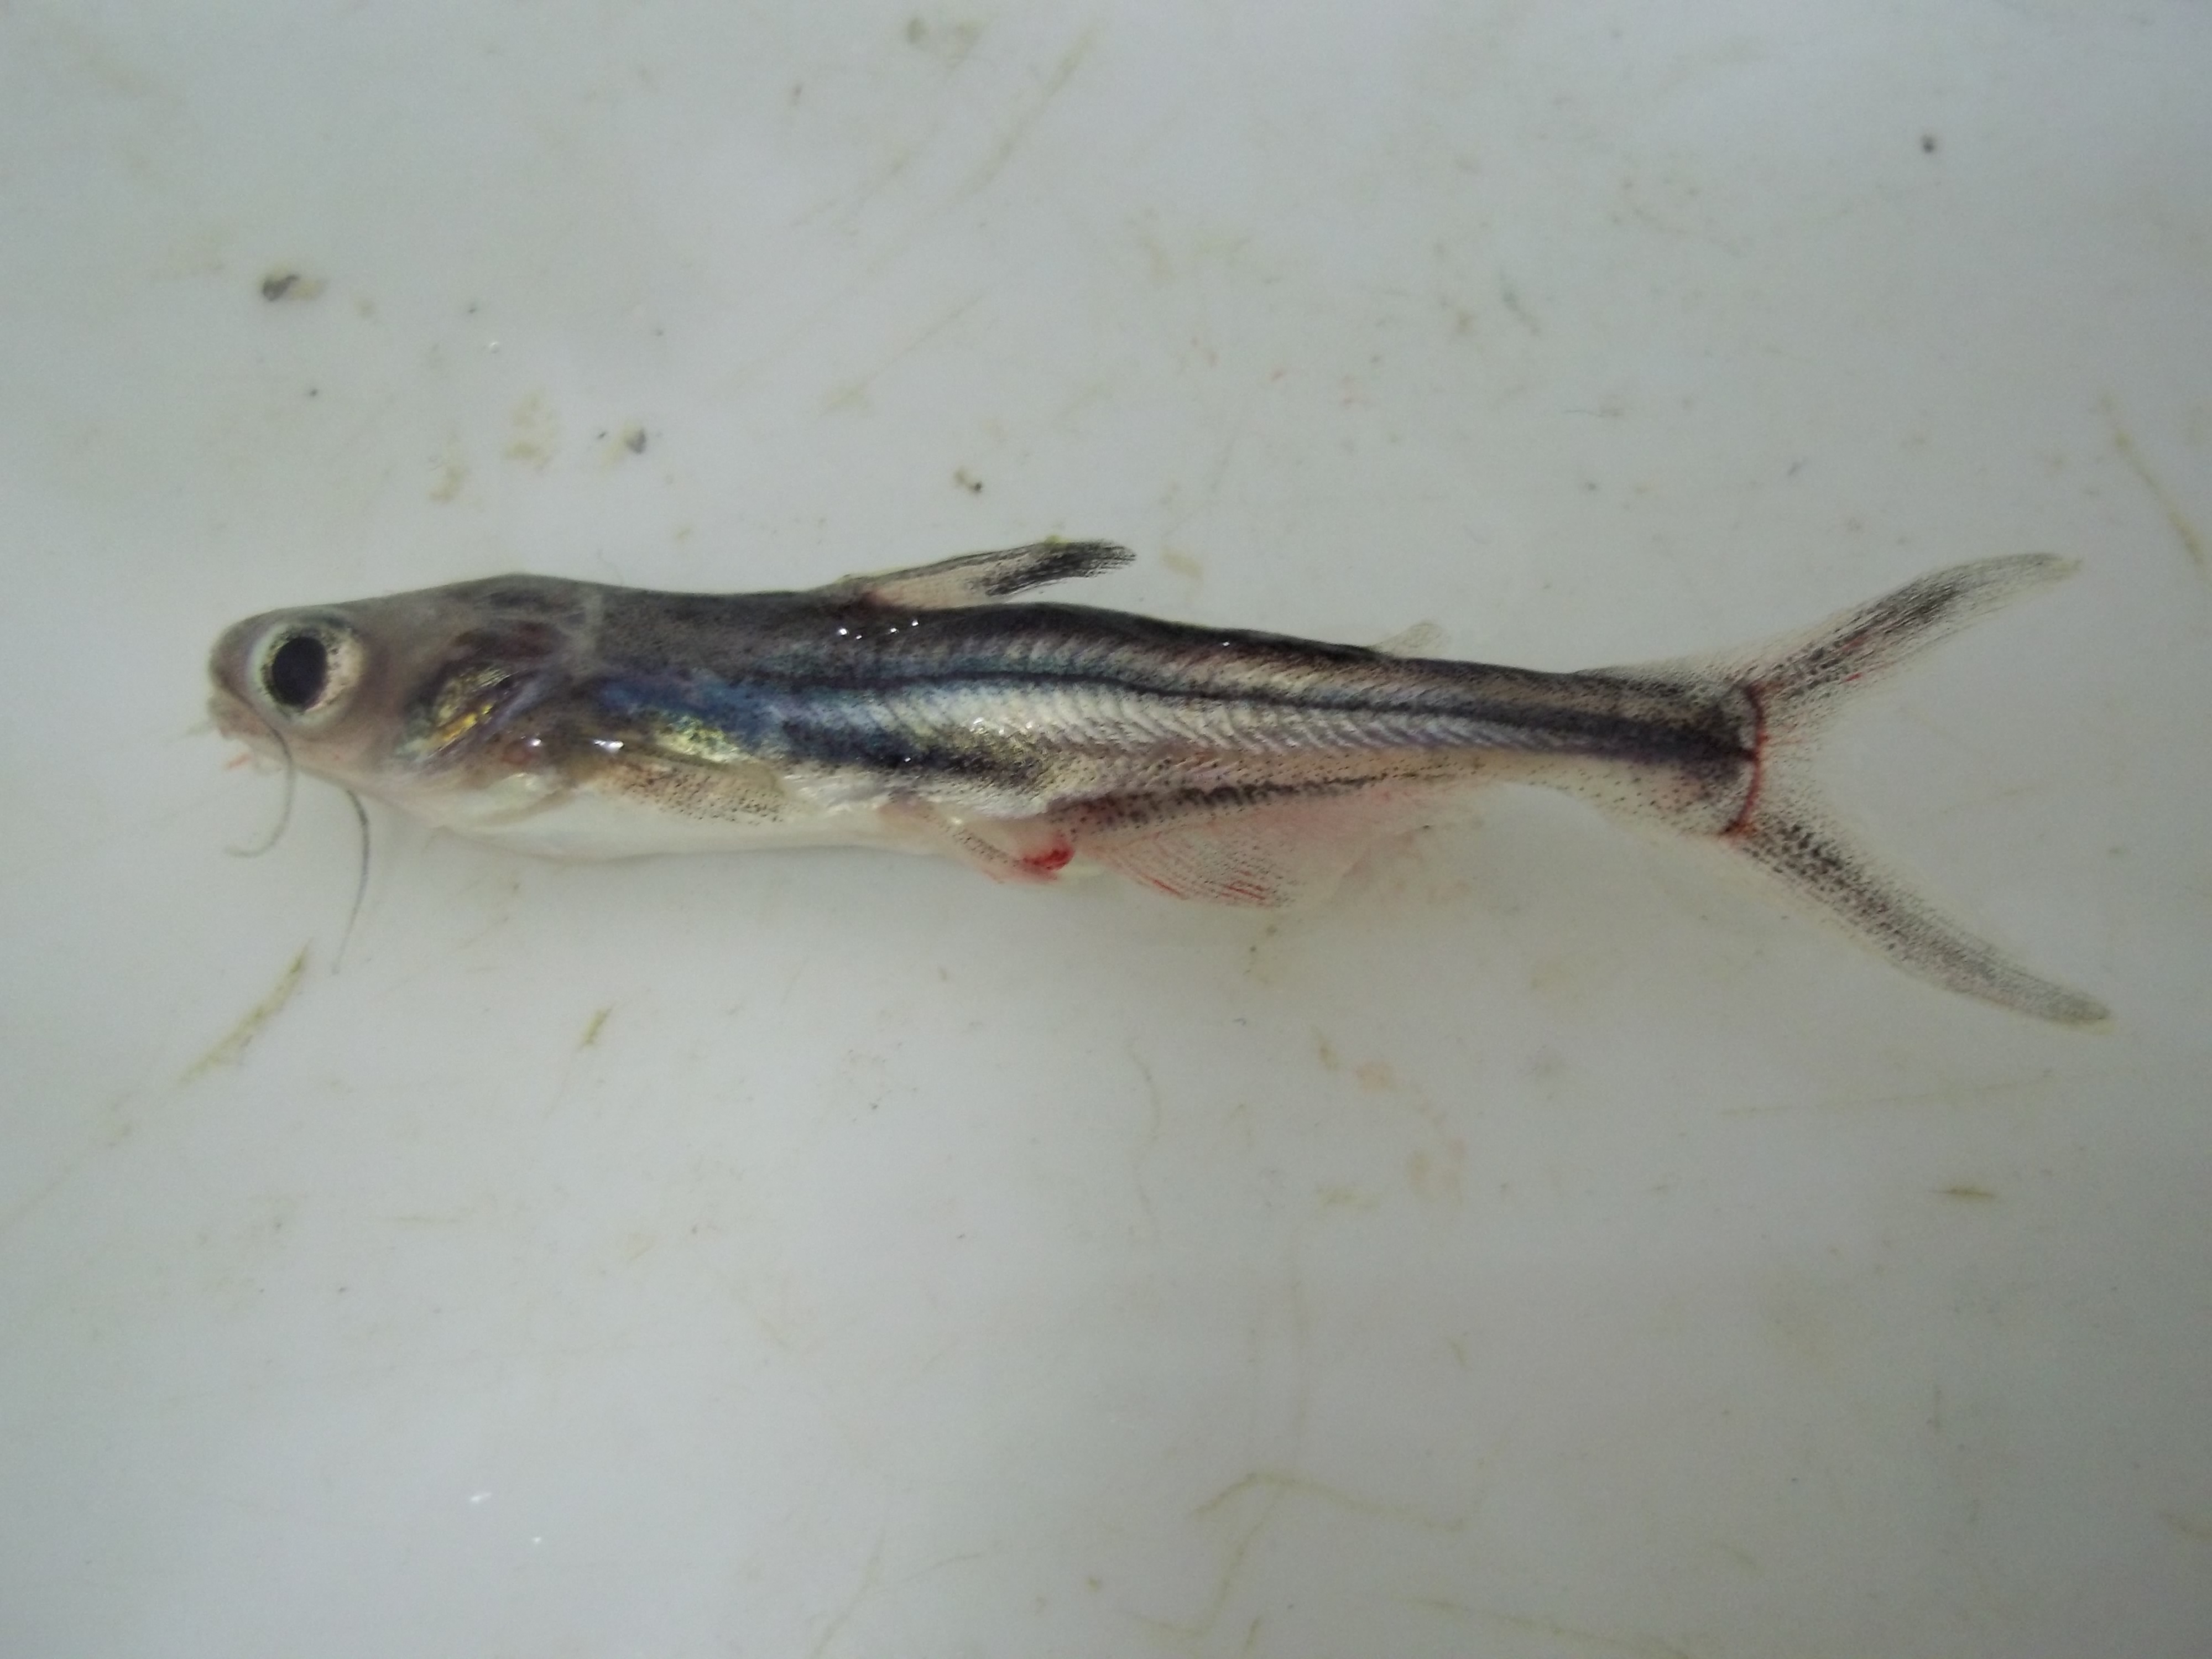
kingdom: Animalia
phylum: Chordata
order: Siluriformes
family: Pangasiidae
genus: Pangasianodon
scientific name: Pangasianodon hypophthalmus
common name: Striped catfish
